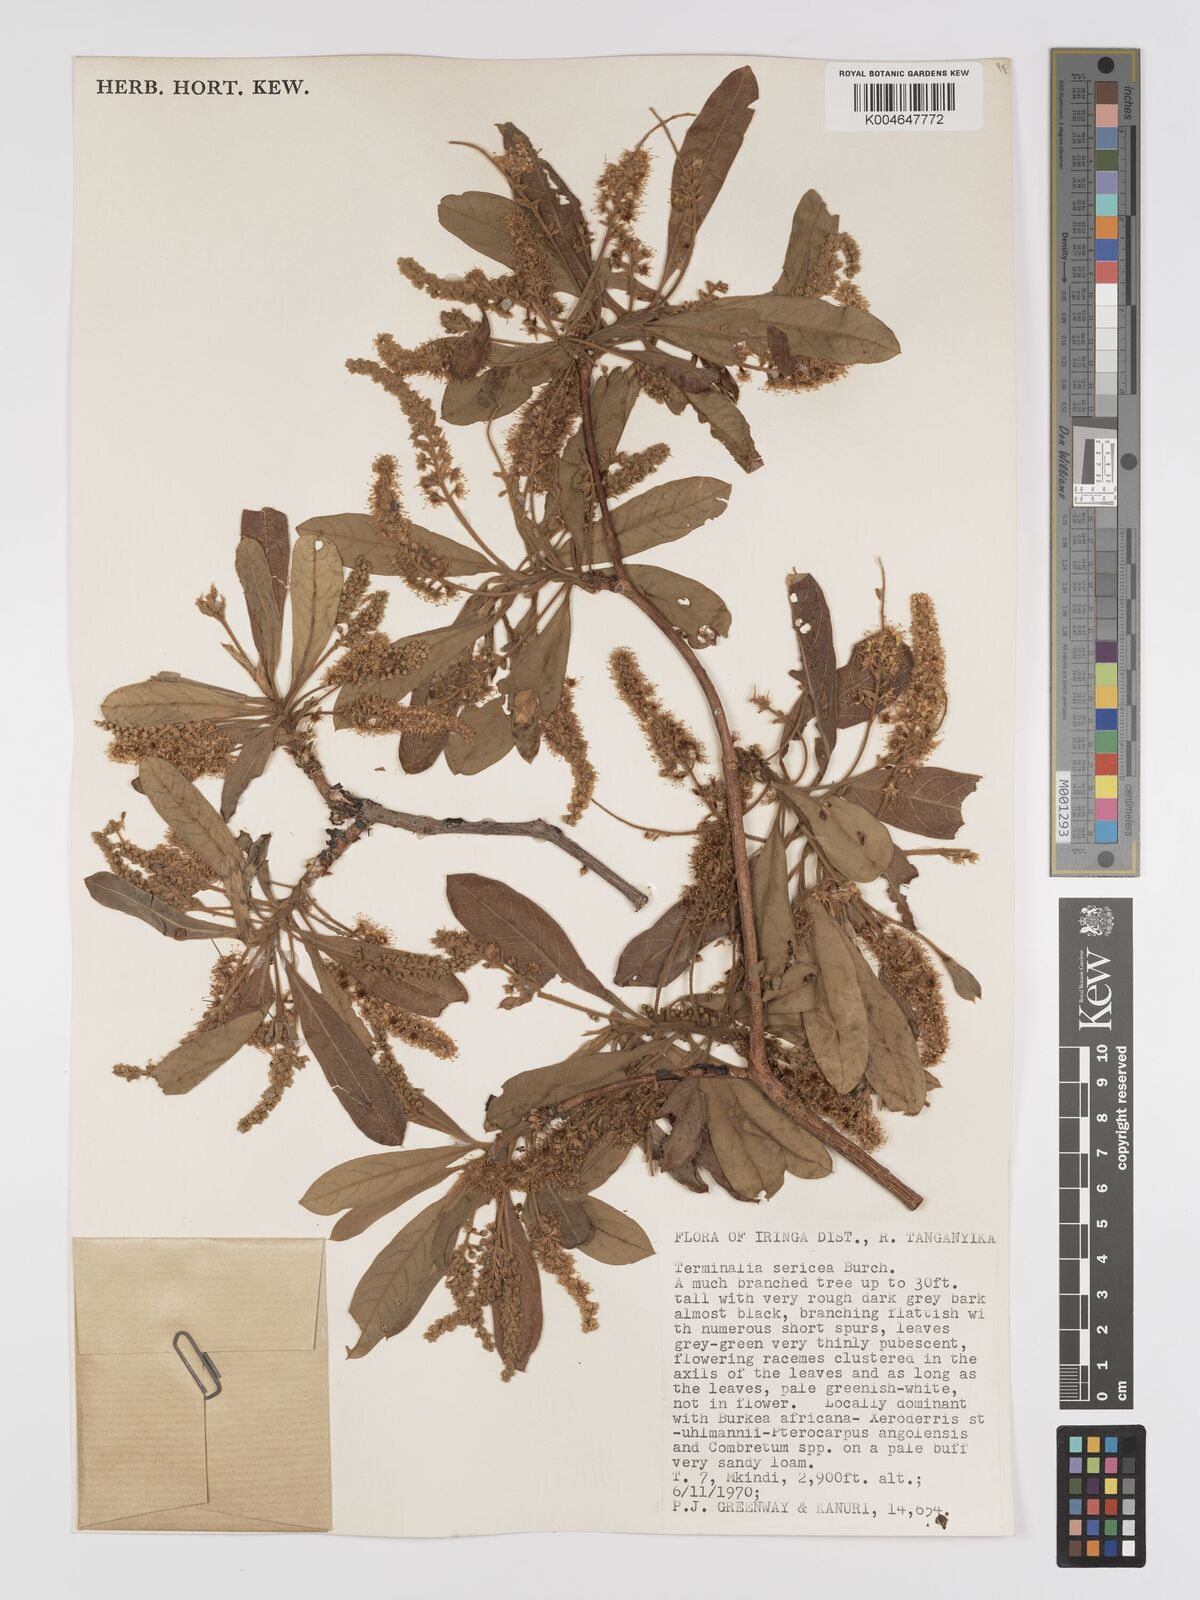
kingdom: Plantae
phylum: Tracheophyta
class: Magnoliopsida
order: Myrtales
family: Combretaceae
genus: Terminalia
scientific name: Terminalia
